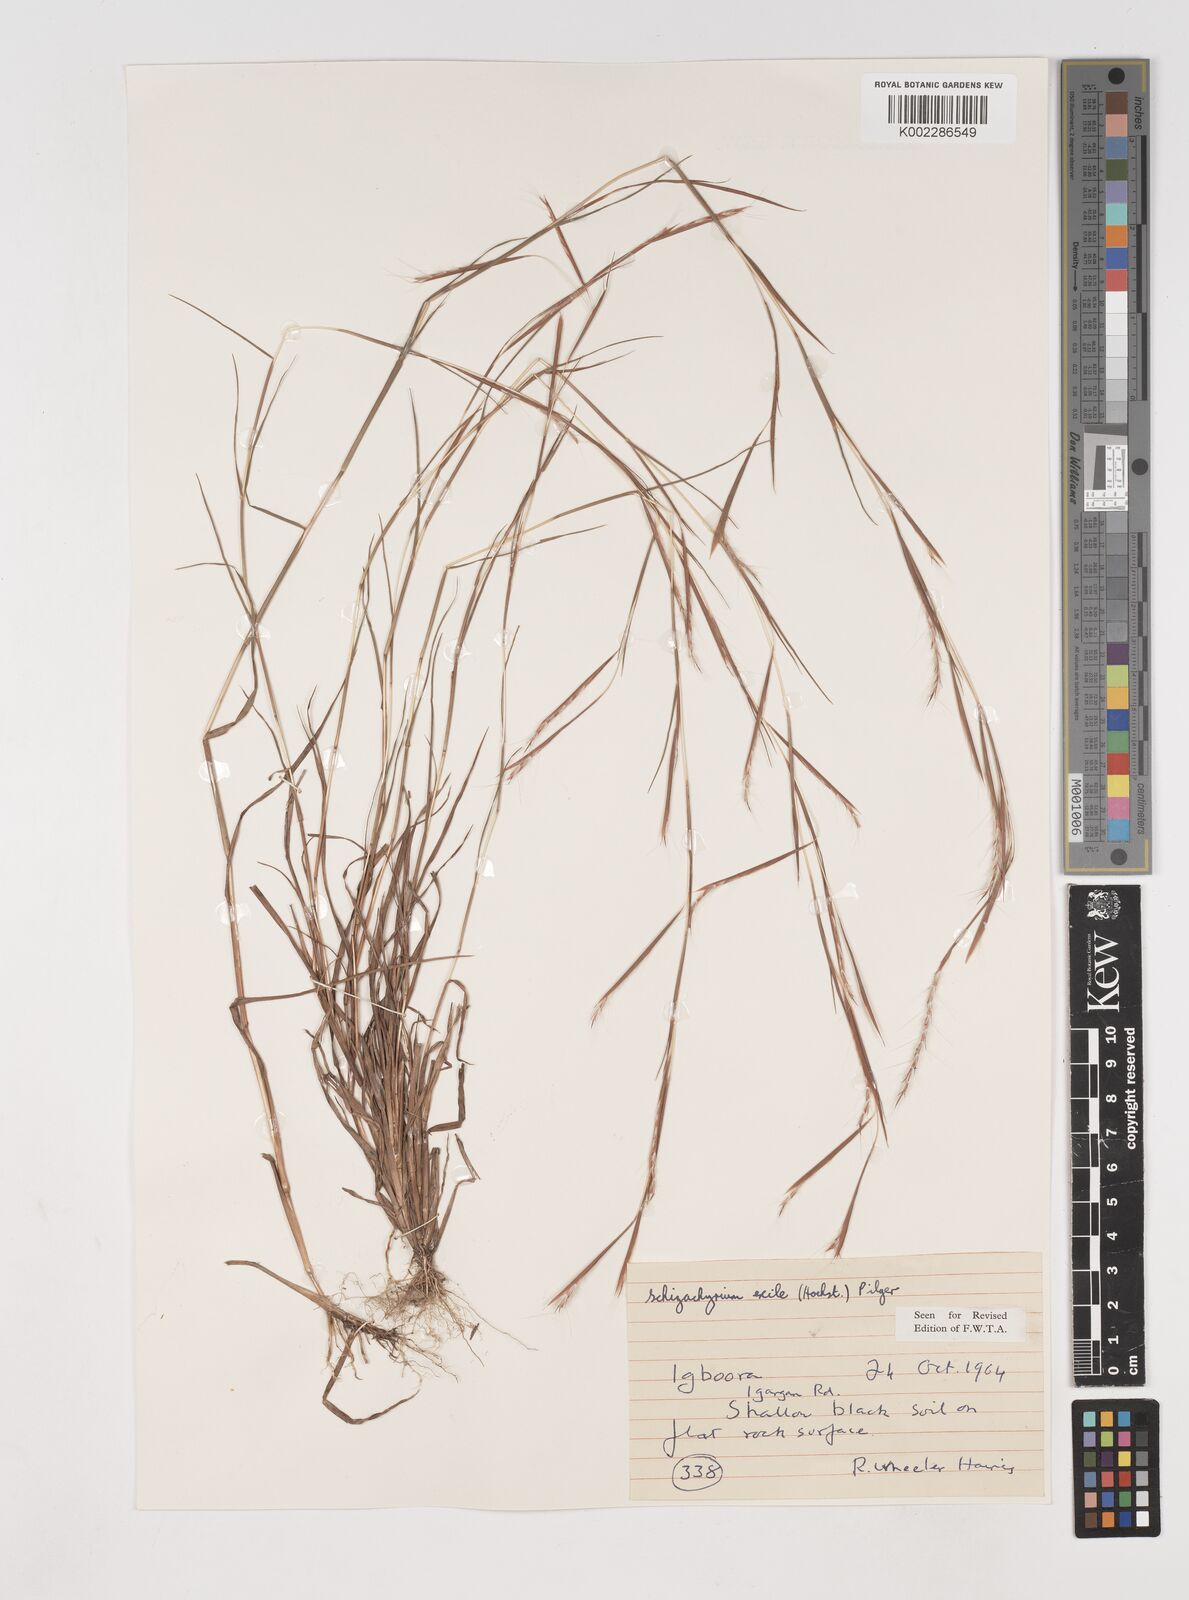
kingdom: Plantae
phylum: Tracheophyta
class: Liliopsida
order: Poales
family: Poaceae
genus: Schizachyrium
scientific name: Schizachyrium exile
